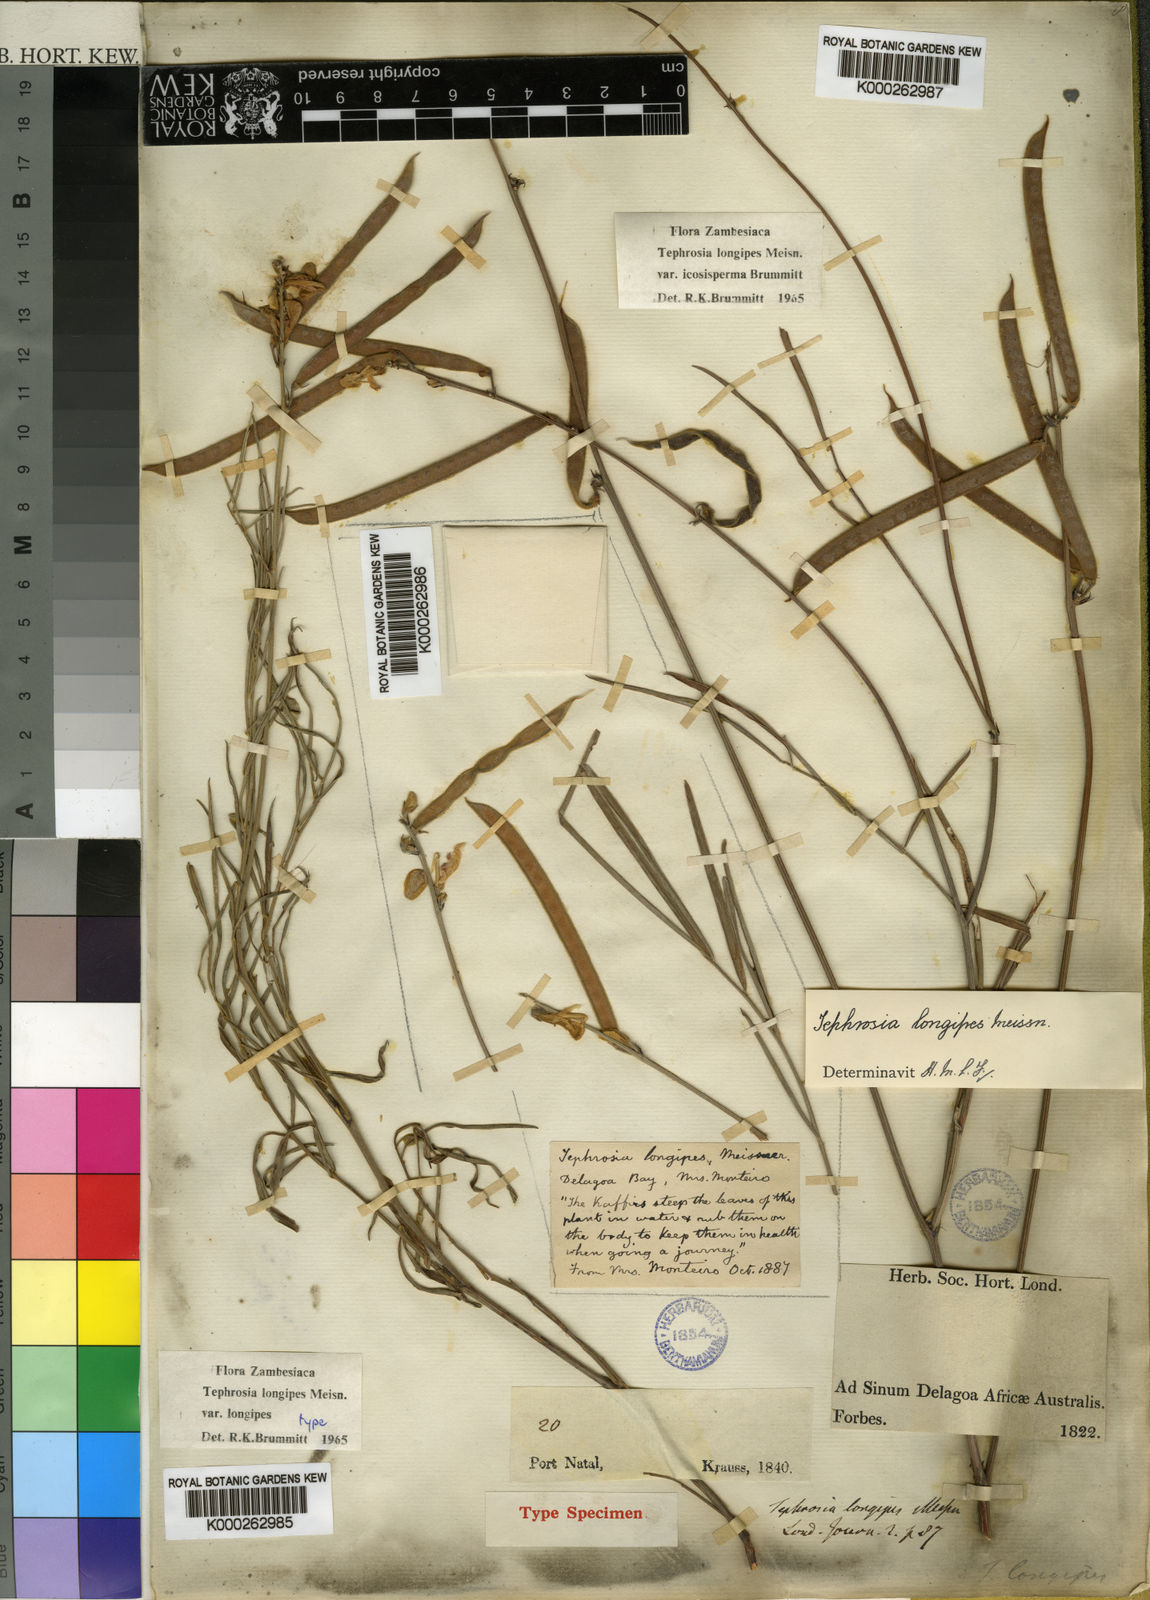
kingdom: Plantae
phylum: Tracheophyta
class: Magnoliopsida
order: Fabales
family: Fabaceae
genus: Tephrosia
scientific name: Tephrosia longipes
